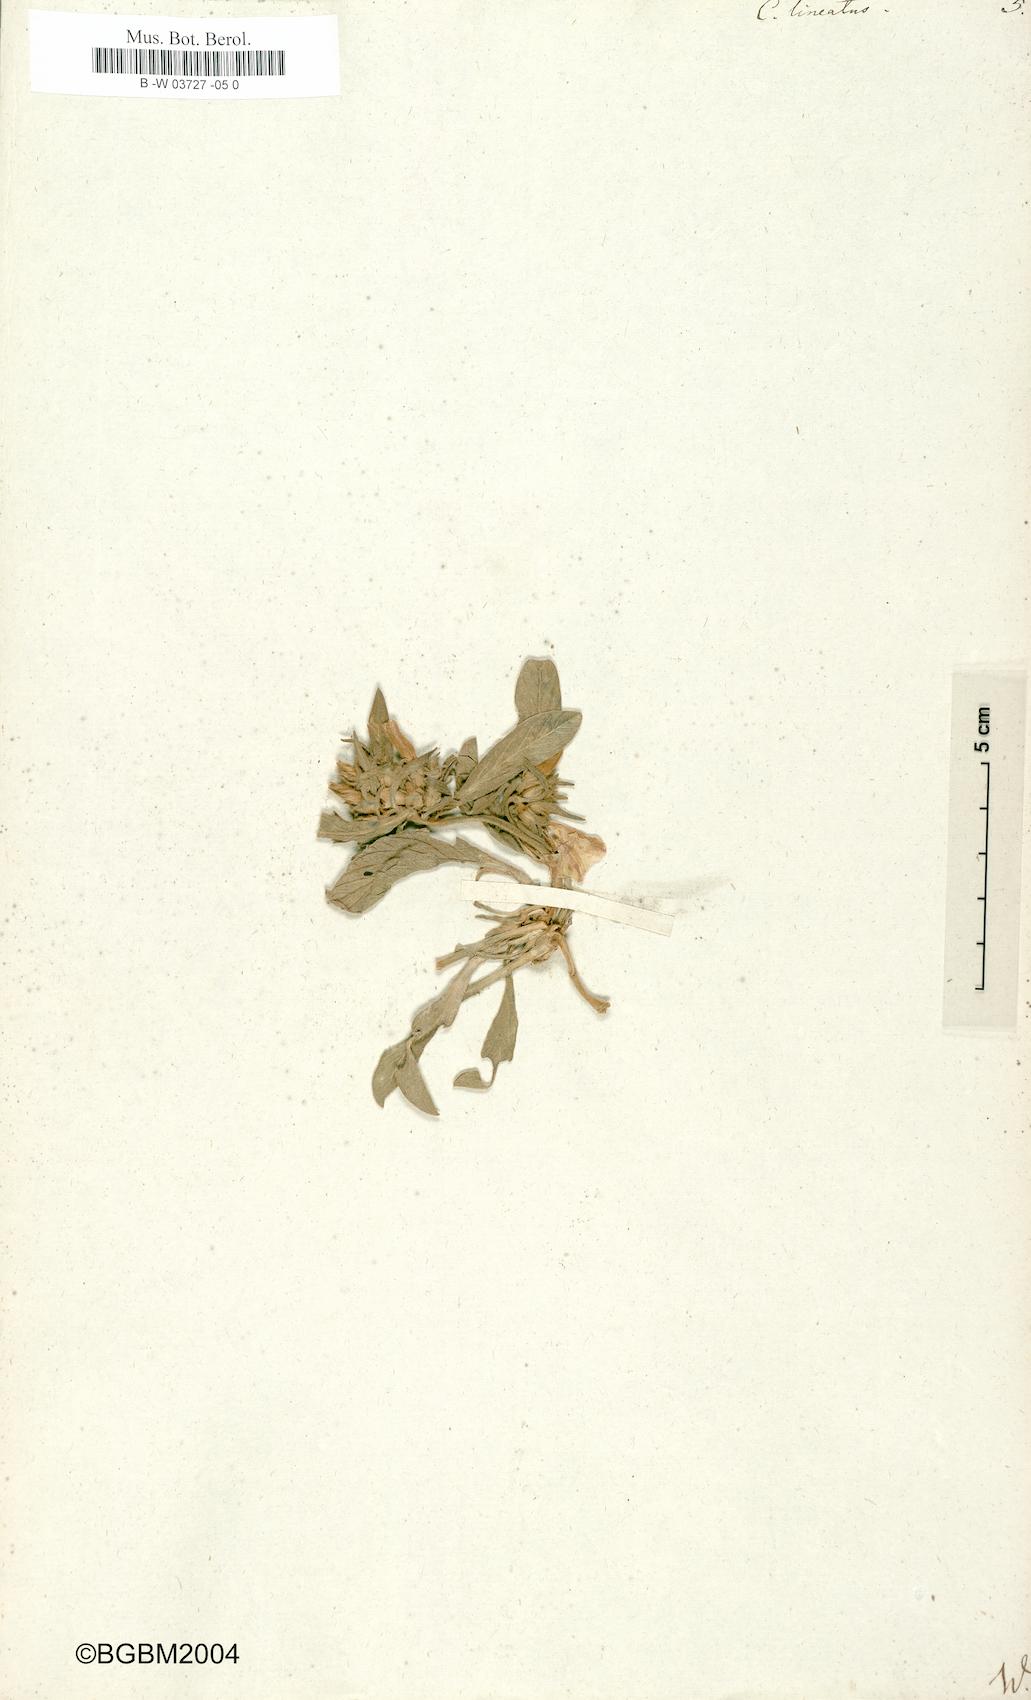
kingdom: Plantae
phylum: Tracheophyta
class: Magnoliopsida
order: Solanales
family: Convolvulaceae
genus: Convolvulus
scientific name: Convolvulus lineatus
